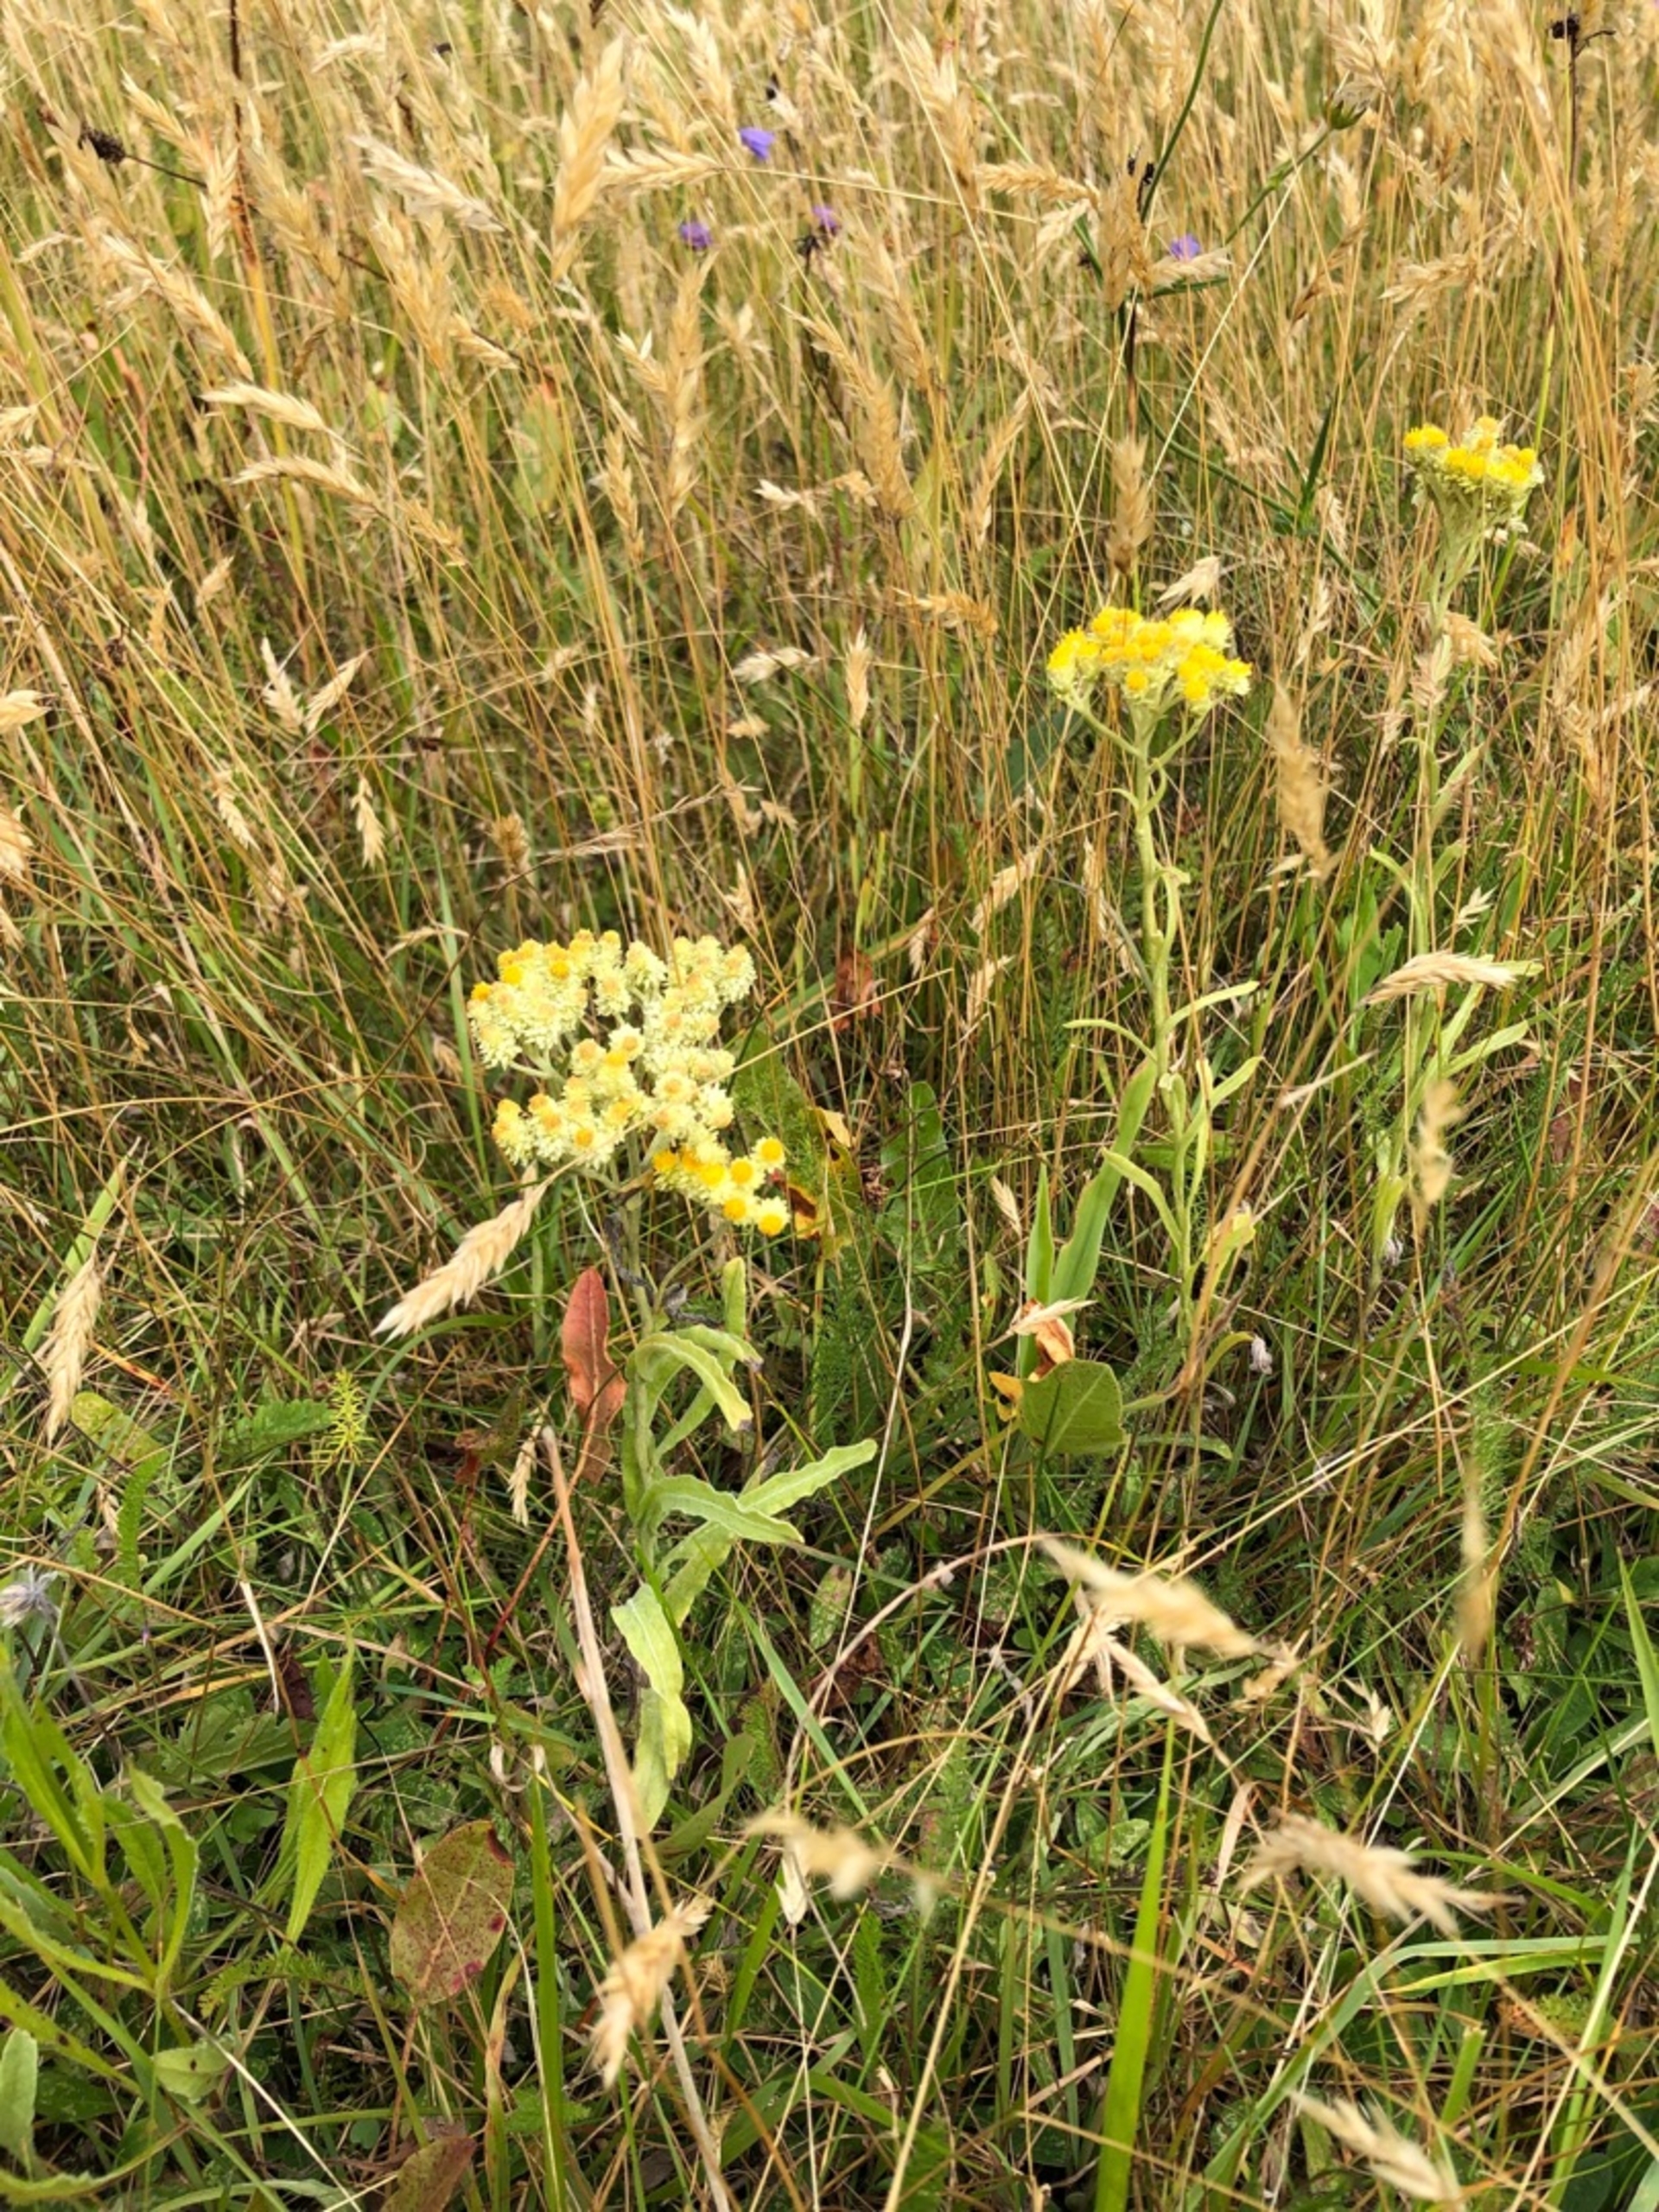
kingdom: Plantae
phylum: Tracheophyta
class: Magnoliopsida
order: Asterales
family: Asteraceae
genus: Helichrysum
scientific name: Helichrysum arenarium
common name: Gul evighedsblomst
